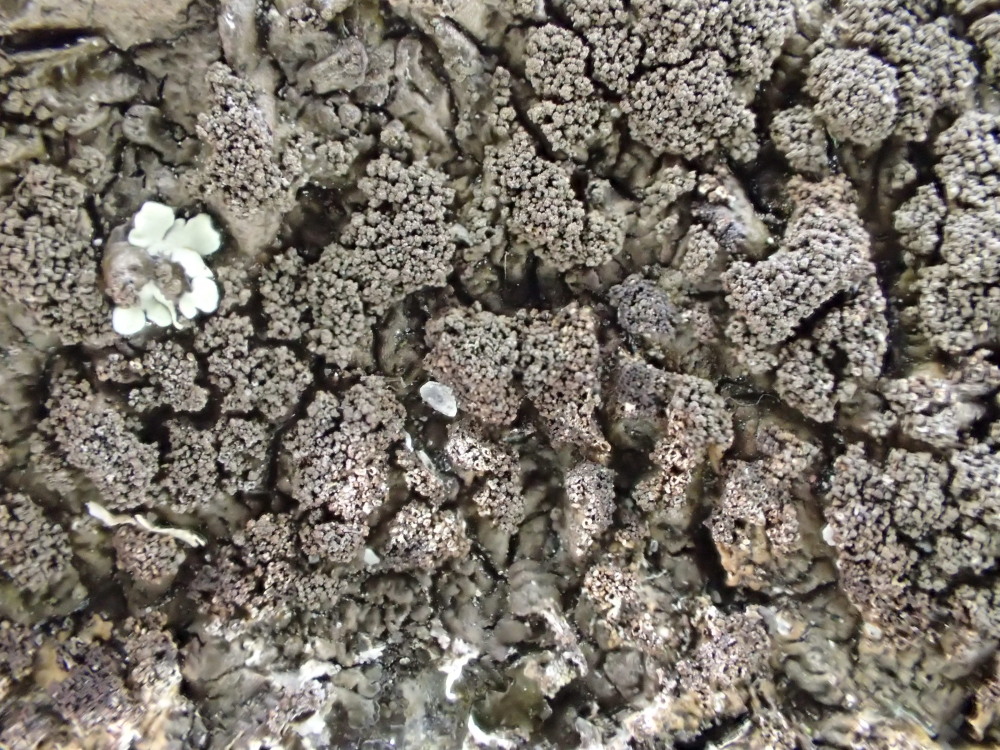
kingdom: Fungi
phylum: Ascomycota
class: Lecanoromycetes
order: Lecanorales
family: Parmeliaceae
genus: Xanthoparmelia
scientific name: Xanthoparmelia verruculifera
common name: småknoppet skållav
